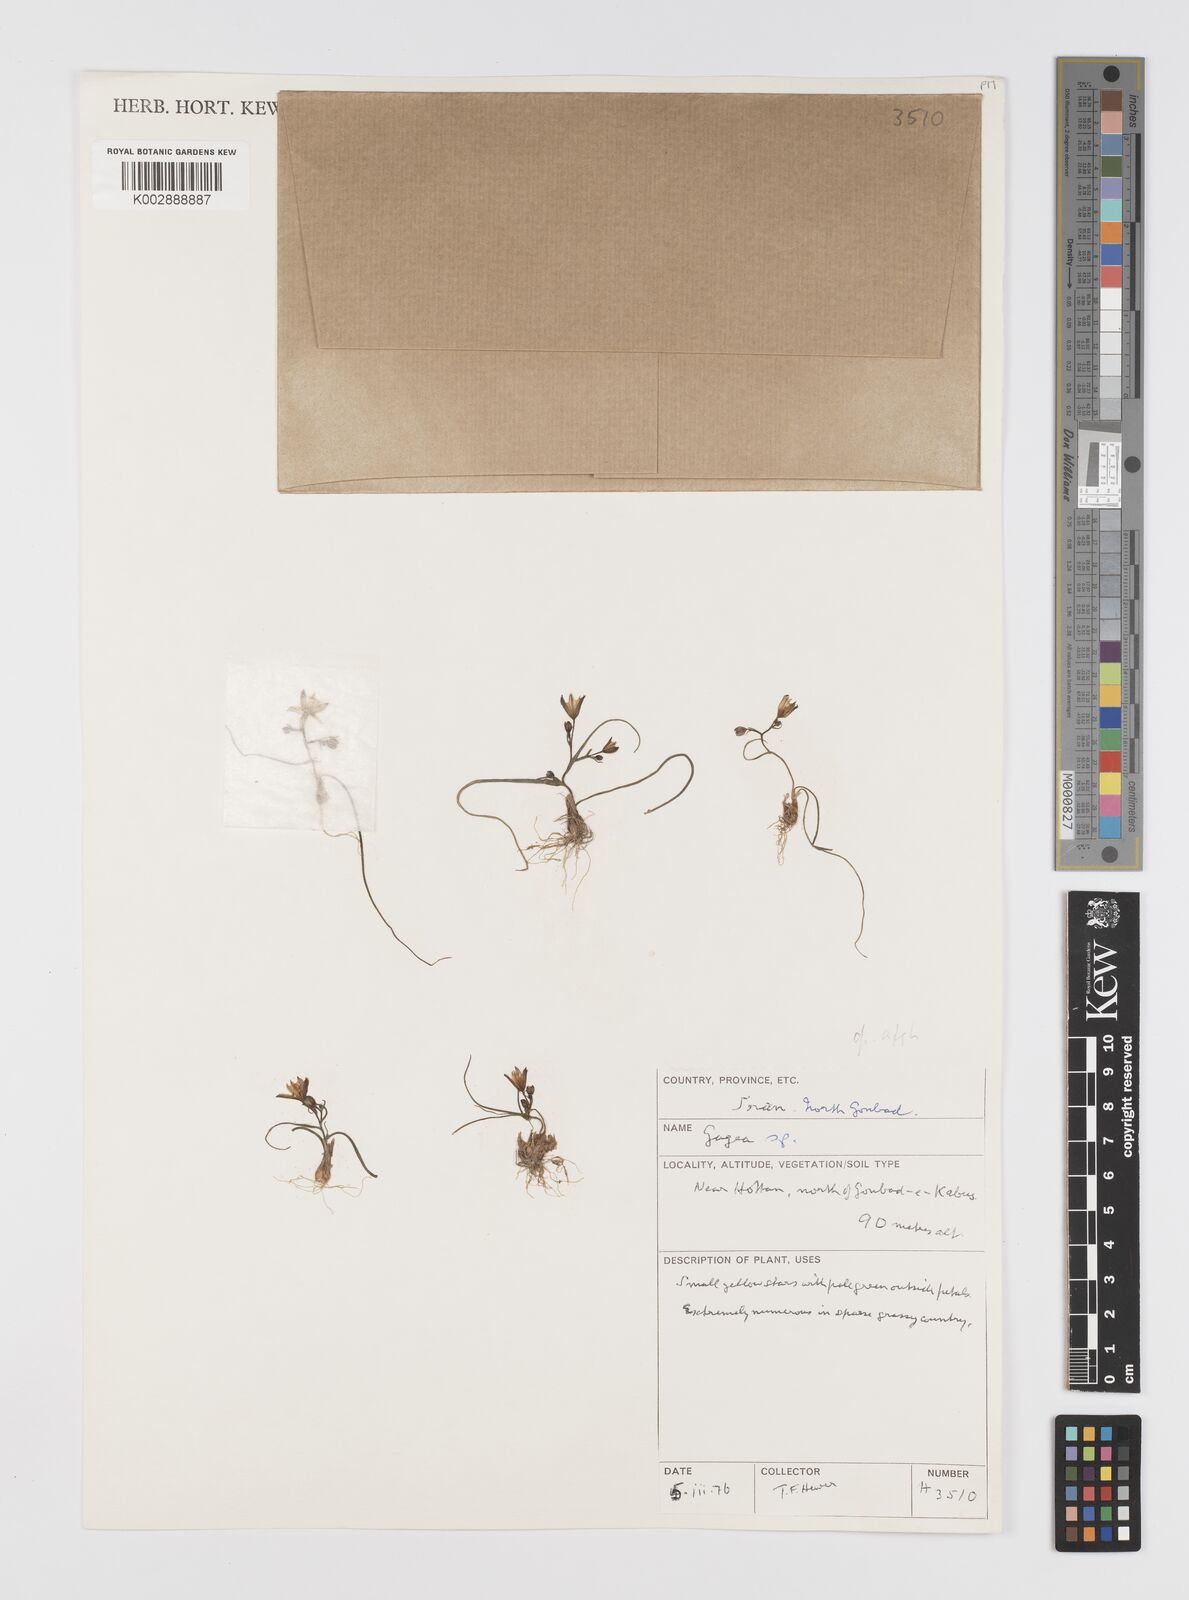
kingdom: Plantae
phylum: Tracheophyta
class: Liliopsida
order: Liliales
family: Liliaceae
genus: Gagea
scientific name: Gagea
